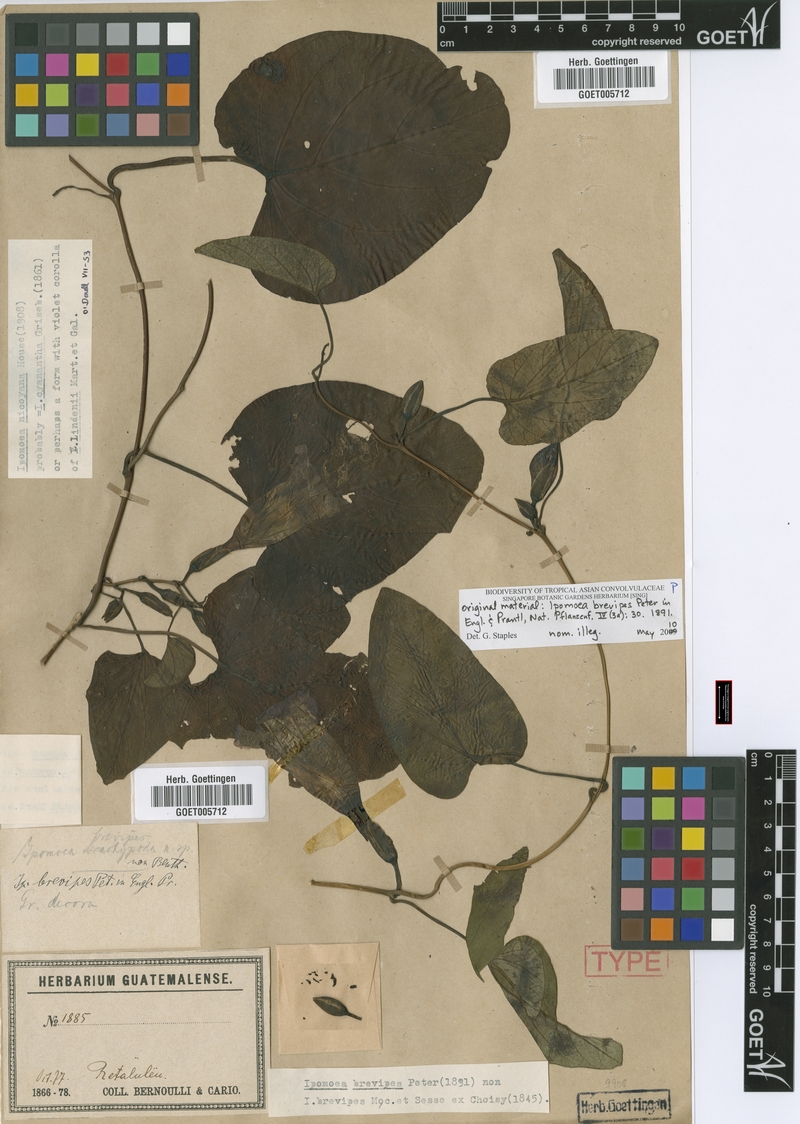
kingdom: Plantae
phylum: Tracheophyta
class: Magnoliopsida
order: Solanales
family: Convolvulaceae
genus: Ipomoea
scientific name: Ipomoea lindenii
